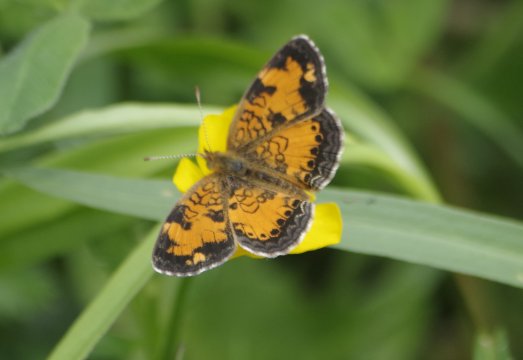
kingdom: Animalia
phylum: Arthropoda
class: Insecta
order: Lepidoptera
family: Nymphalidae
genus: Phyciodes
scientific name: Phyciodes tharos
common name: Northern Crescent
